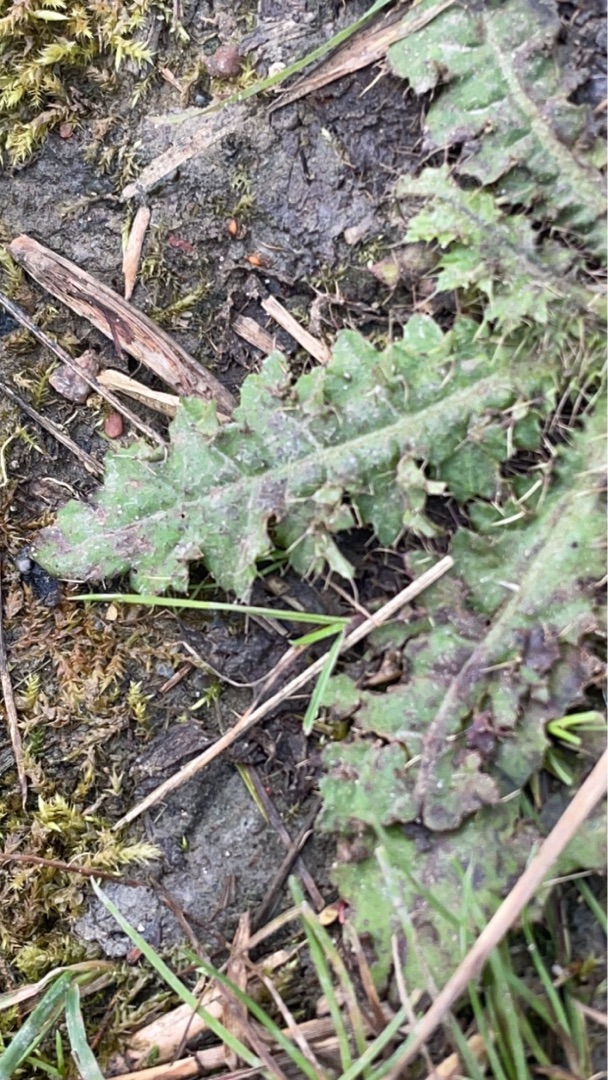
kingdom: Plantae
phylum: Tracheophyta
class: Magnoliopsida
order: Asterales
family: Asteraceae
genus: Cirsium
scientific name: Cirsium vulgare
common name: Horse-tidsel
